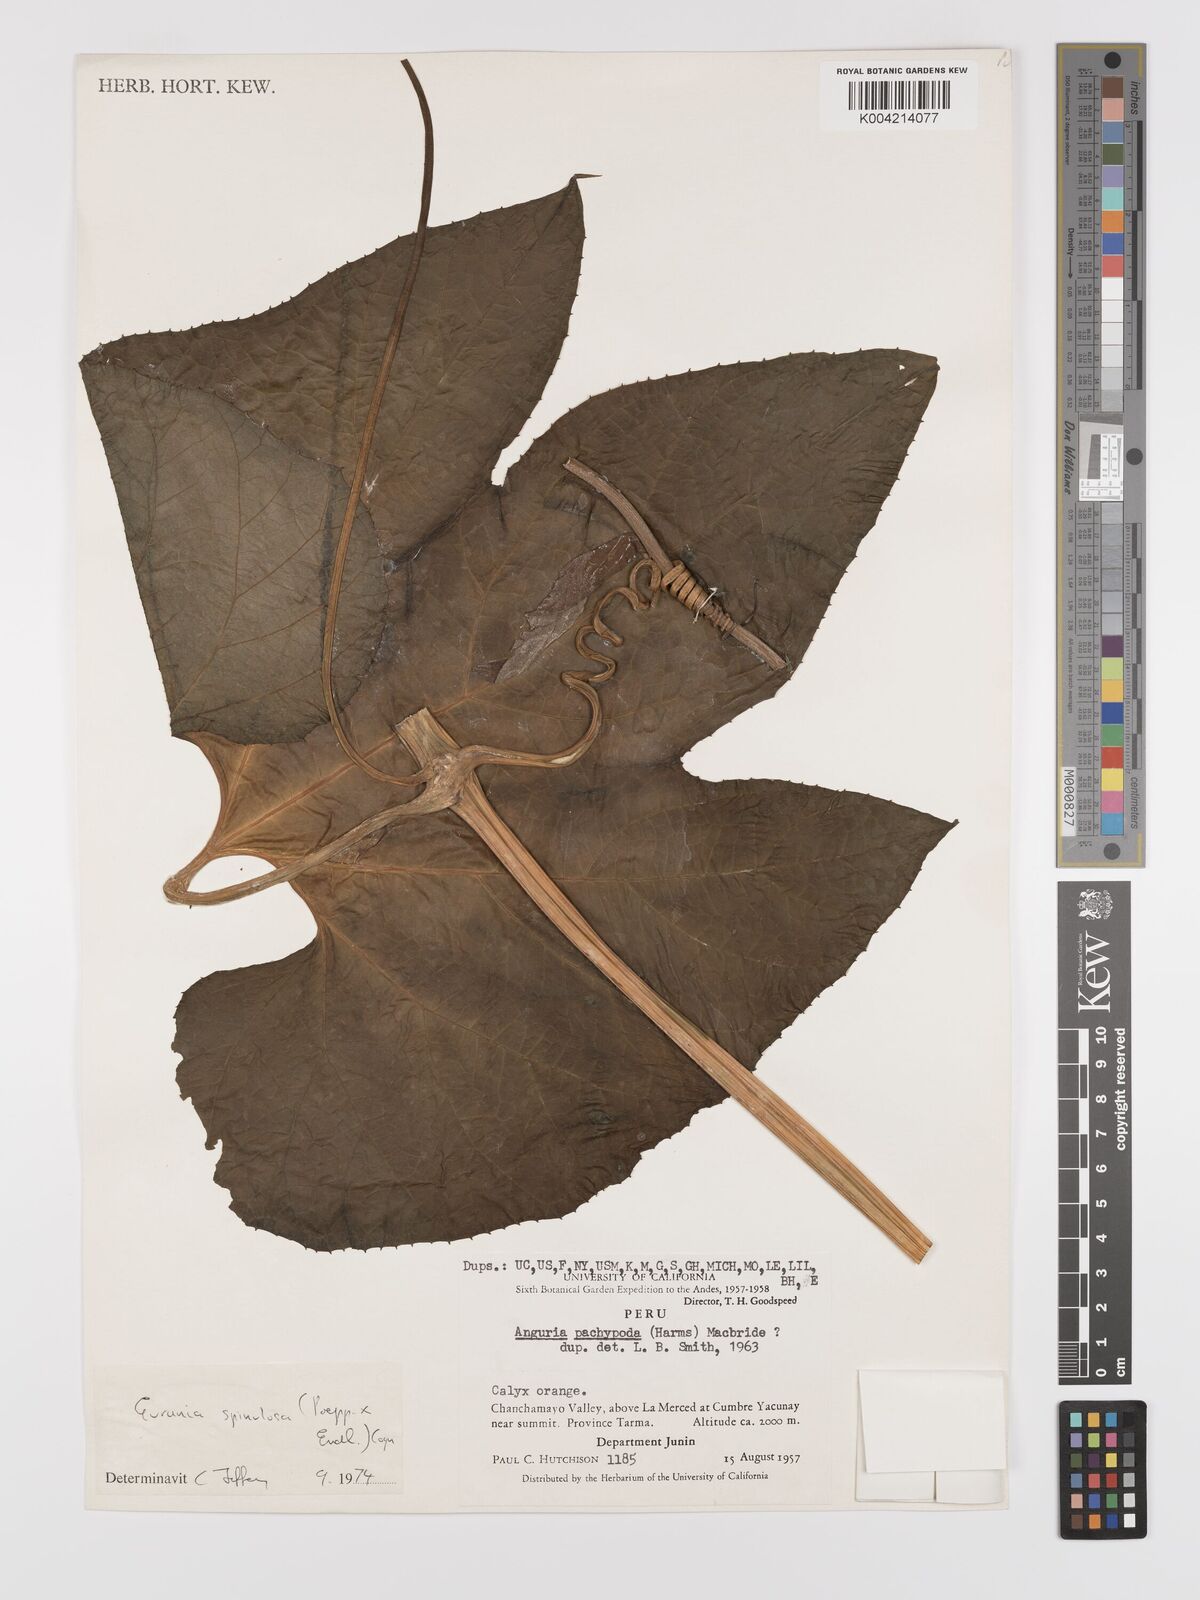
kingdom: Plantae
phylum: Tracheophyta
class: Magnoliopsida
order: Cucurbitales
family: Cucurbitaceae
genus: Gurania
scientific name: Gurania lobata
